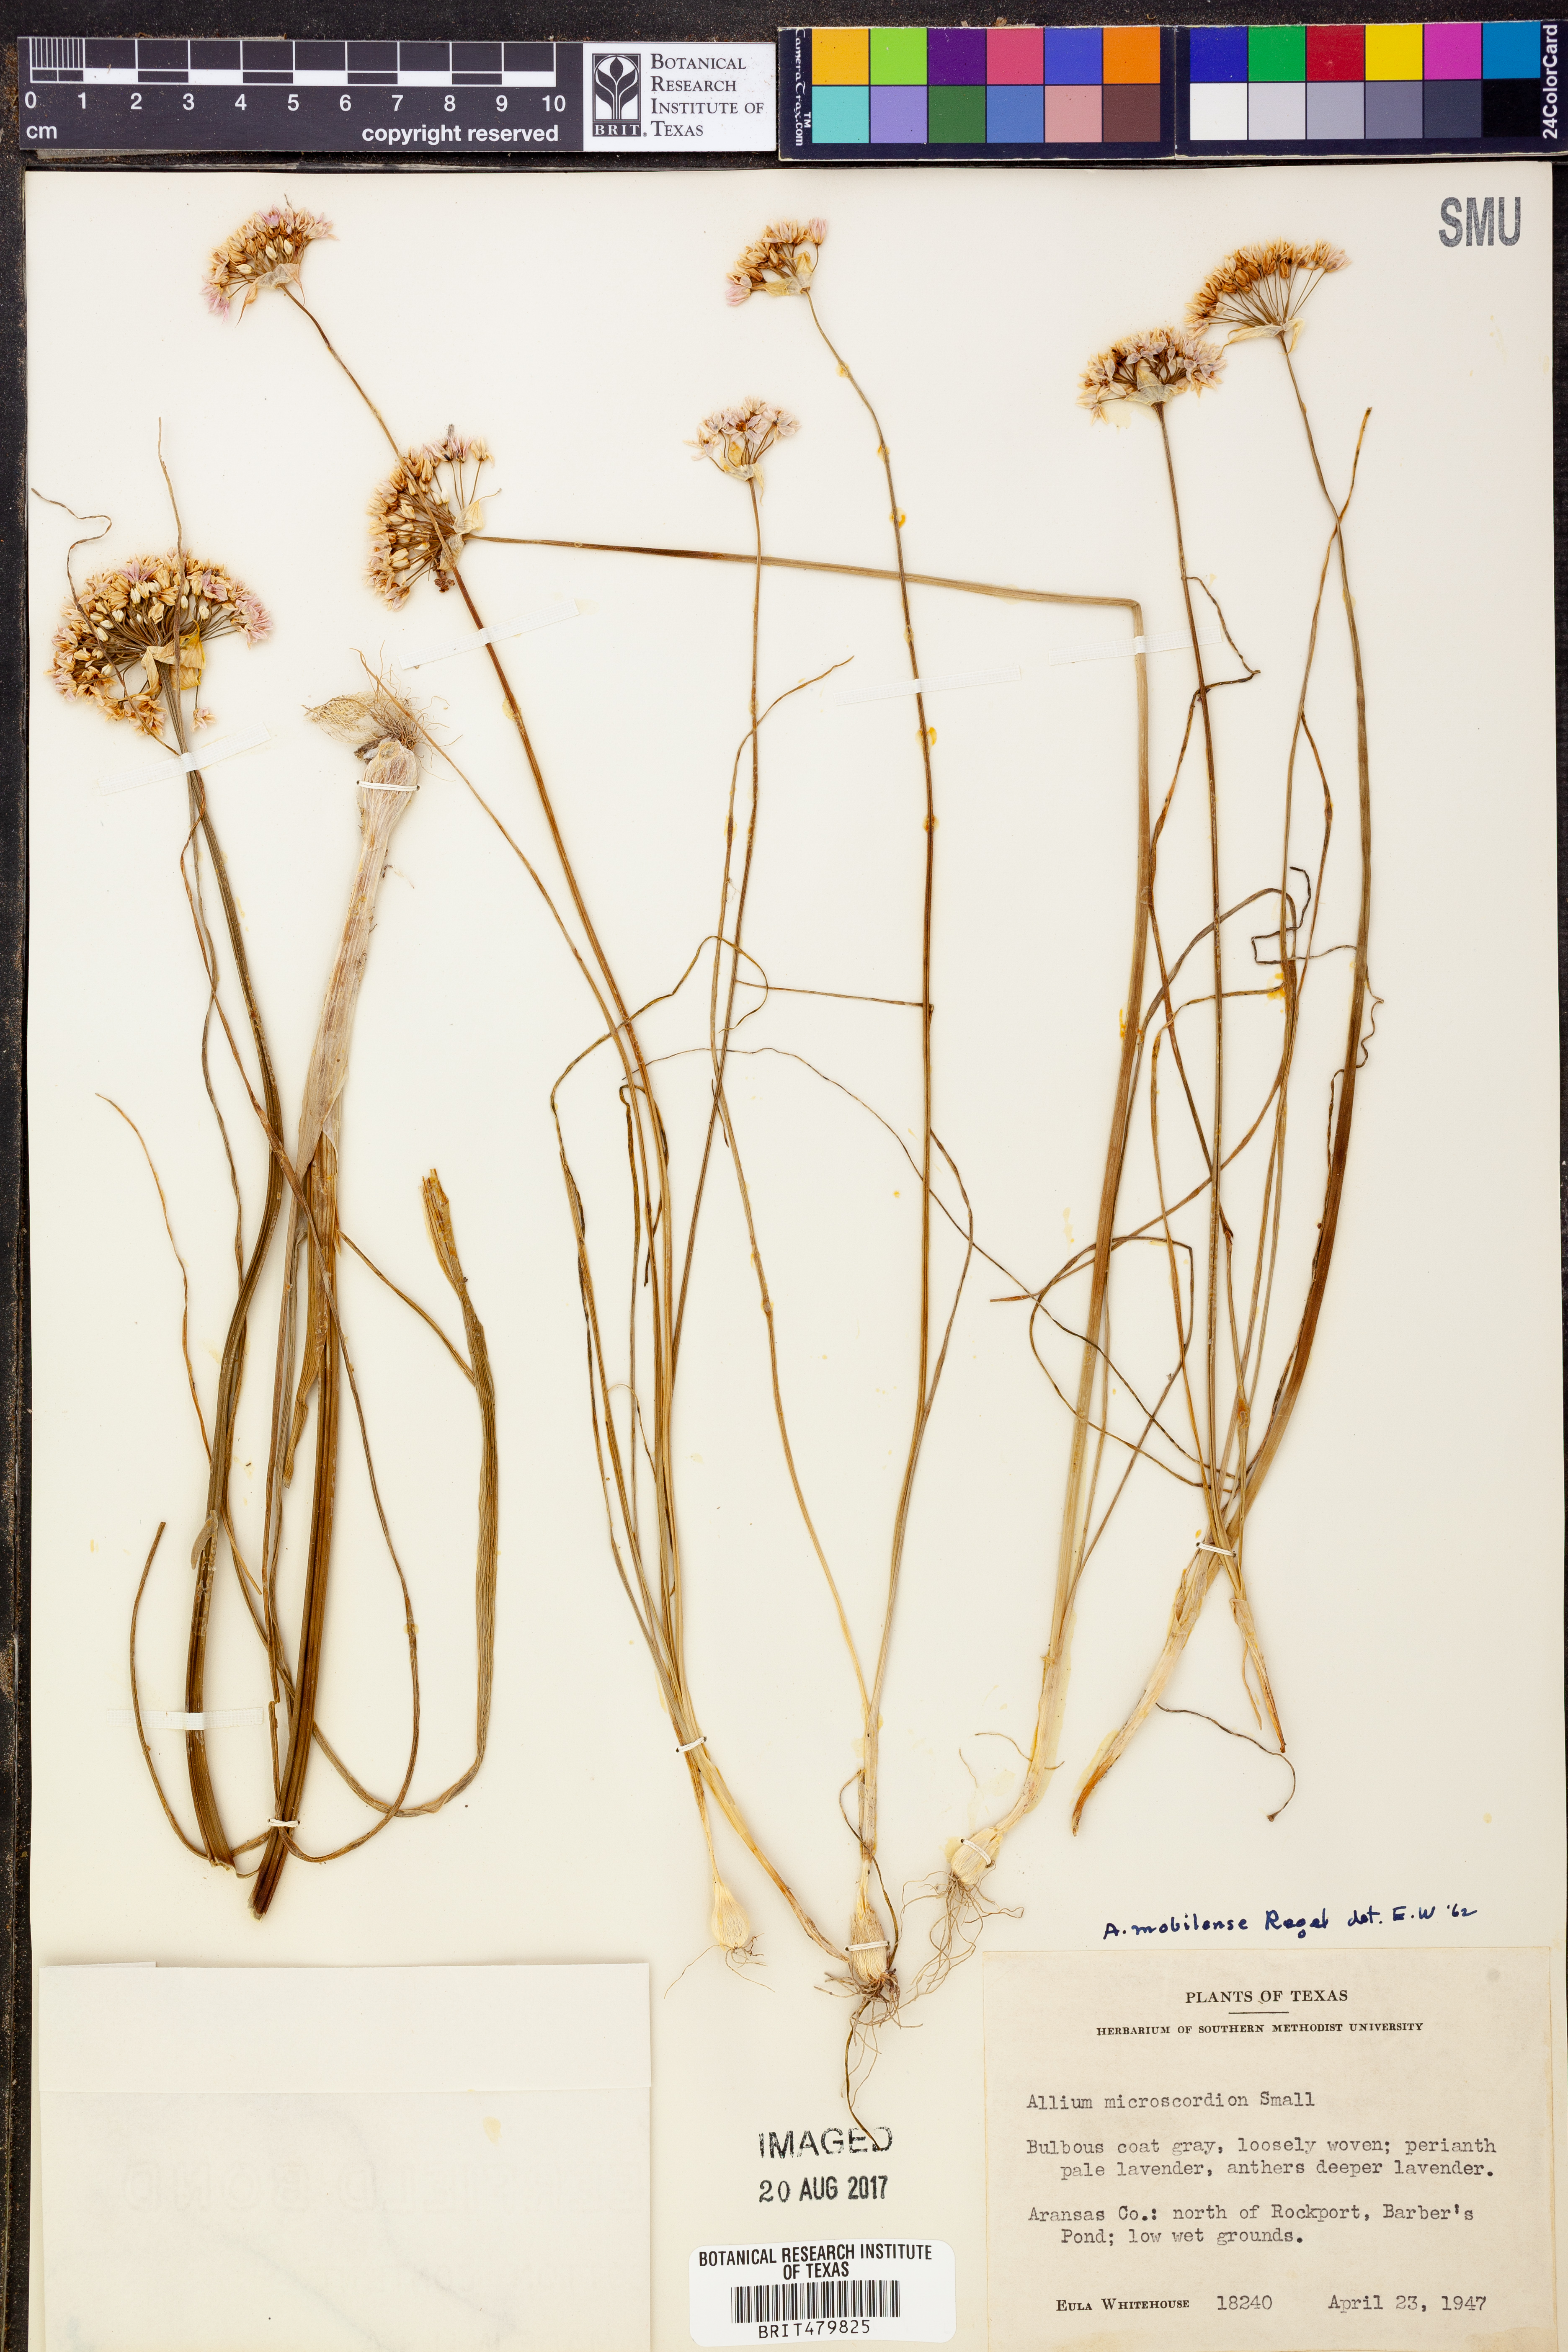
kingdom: Plantae
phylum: Tracheophyta
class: Liliopsida
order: Asparagales
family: Amaryllidaceae
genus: Allium
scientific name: Allium canadense
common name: Meadow garlic
